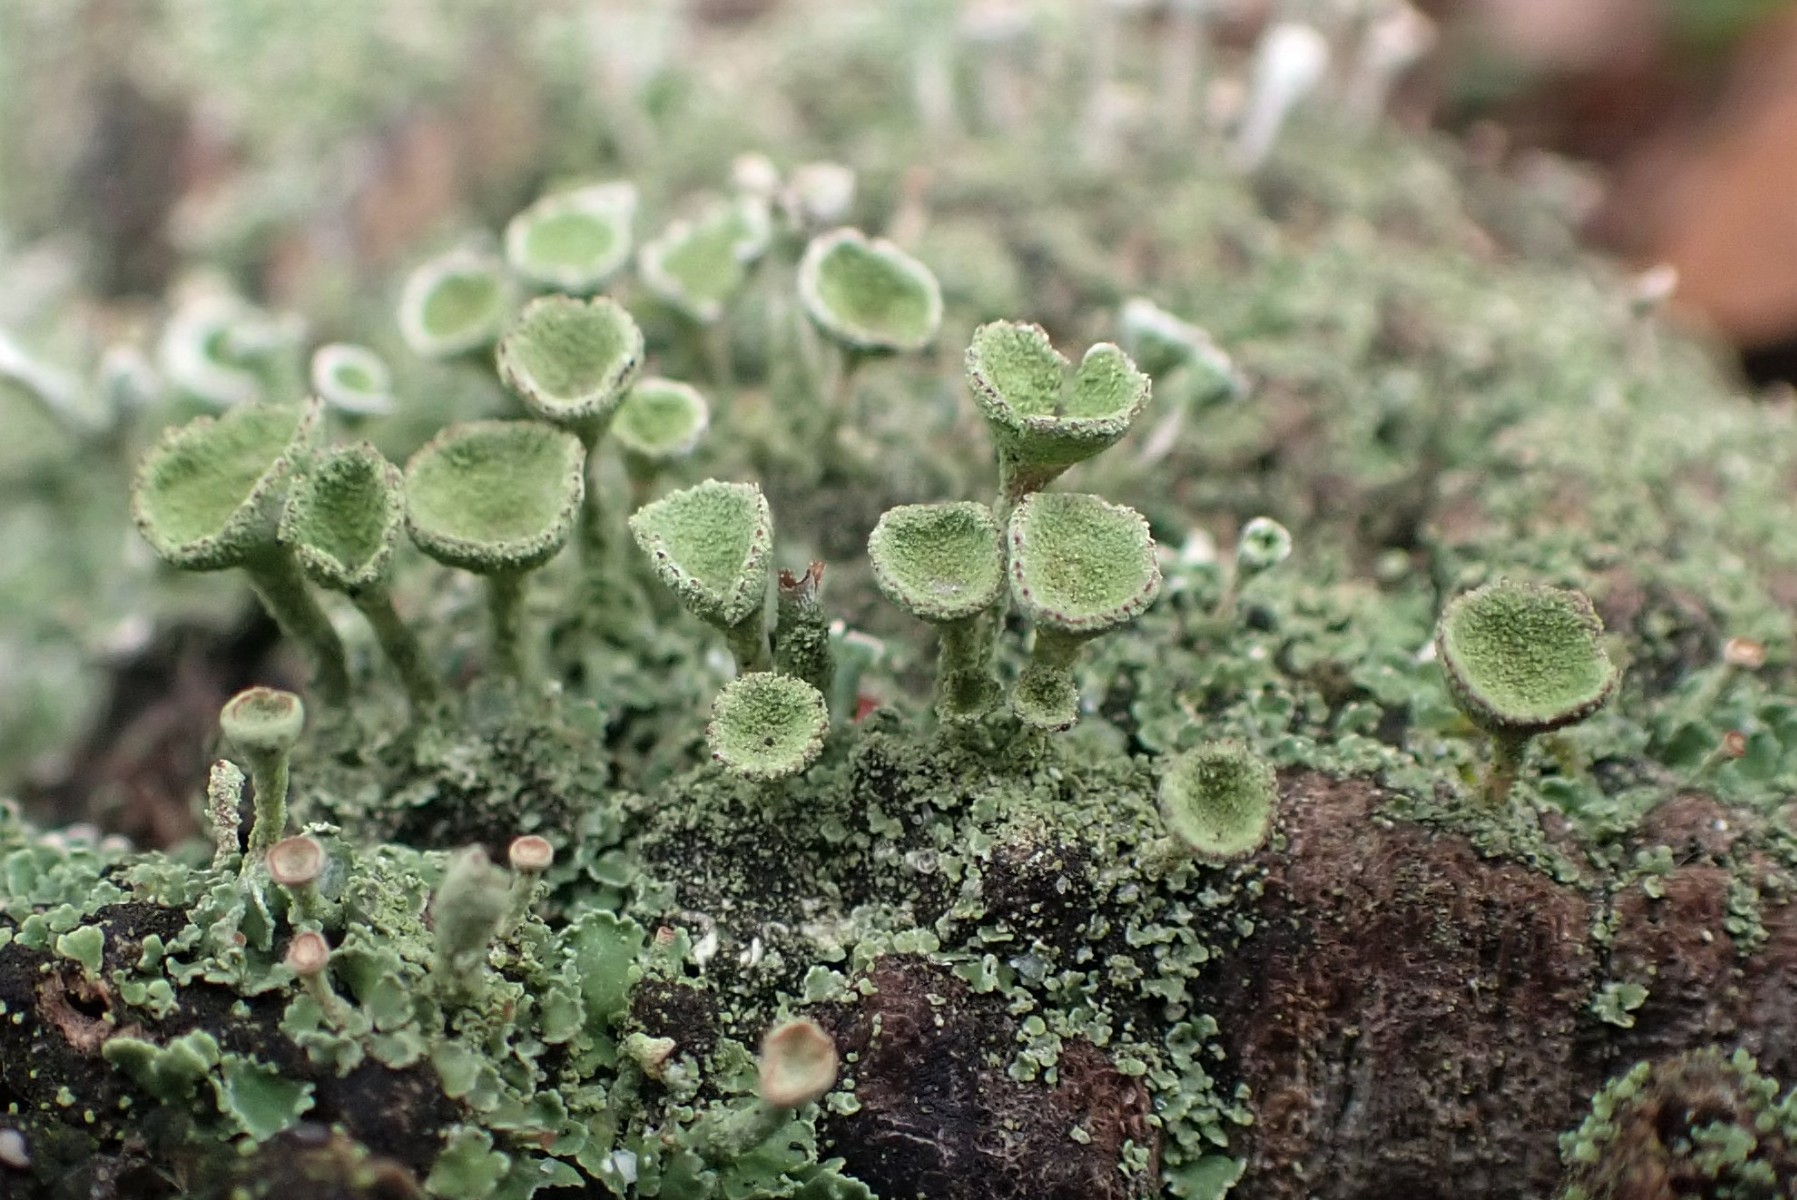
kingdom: Fungi
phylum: Ascomycota
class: Lecanoromycetes
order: Lecanorales
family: Cladoniaceae
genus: Cladonia
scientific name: Cladonia
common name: brungrøn bægerlav
